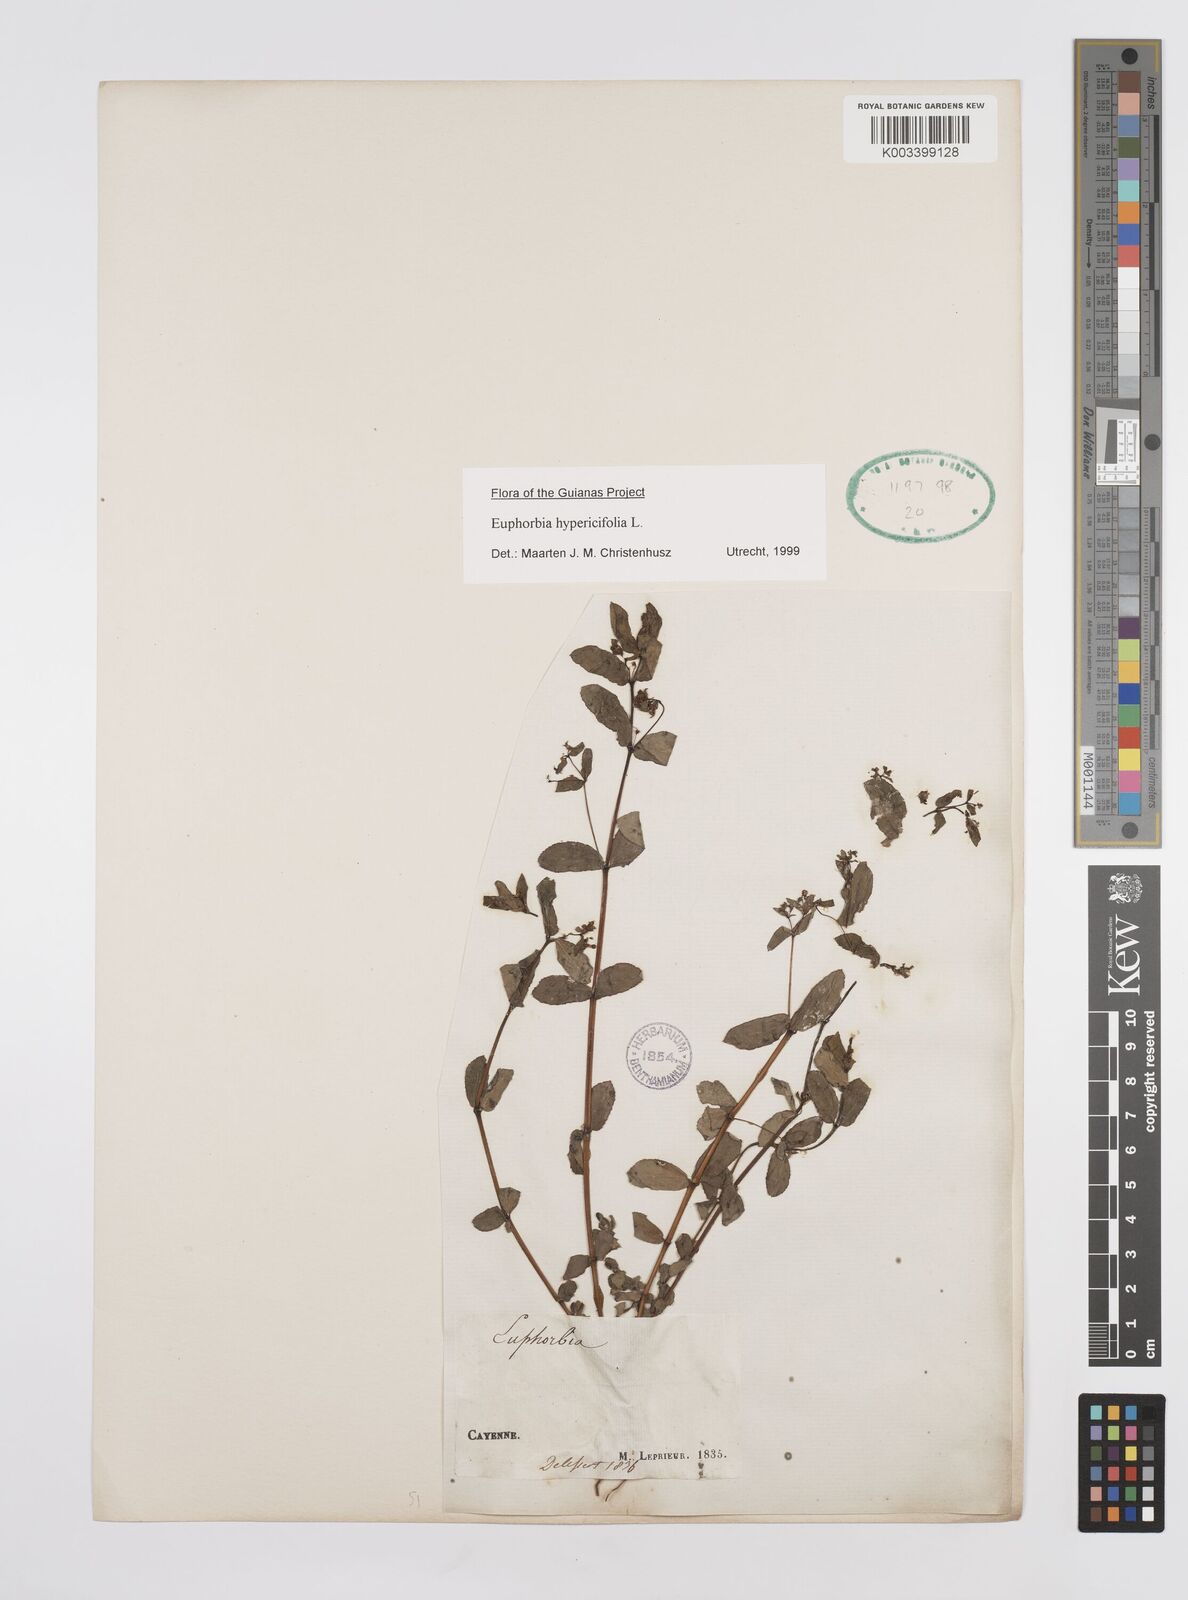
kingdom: Plantae
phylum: Tracheophyta
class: Magnoliopsida
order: Malpighiales
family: Euphorbiaceae
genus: Euphorbia
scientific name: Euphorbia hypericifolia
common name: Graceful sandmat
